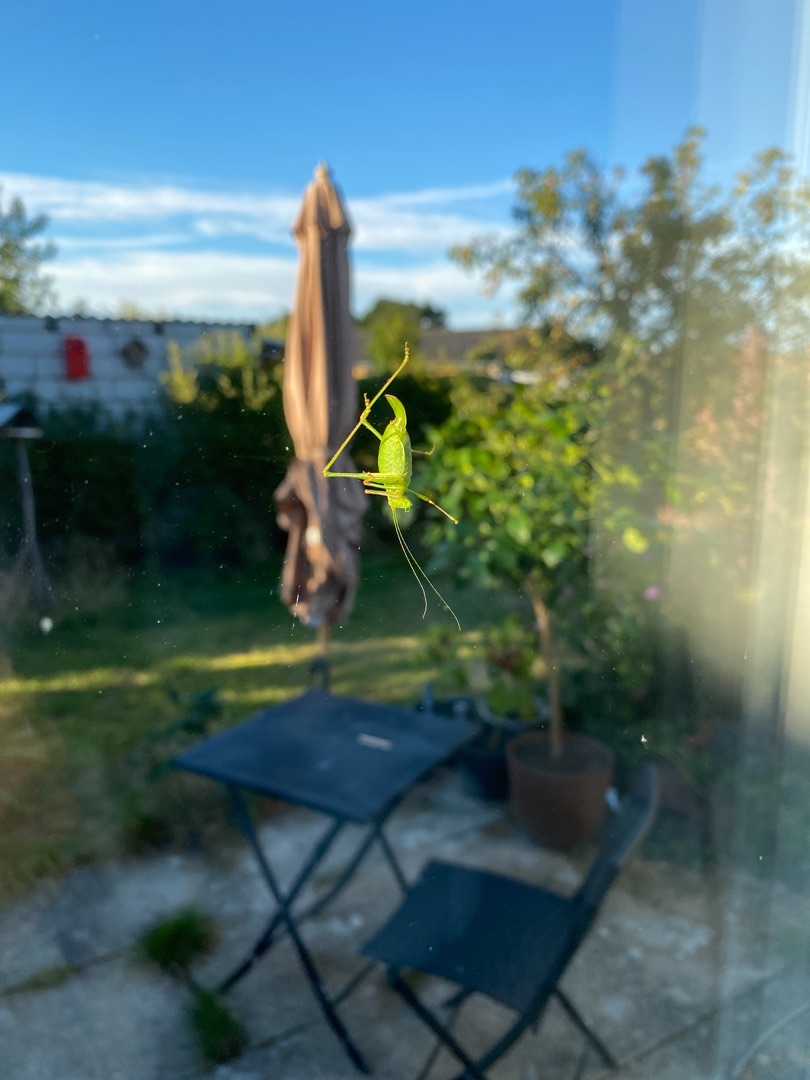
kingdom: Animalia
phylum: Arthropoda
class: Insecta
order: Orthoptera
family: Tettigoniidae
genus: Leptophyes
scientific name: Leptophyes punctatissima
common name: Krumknivgræshoppe
